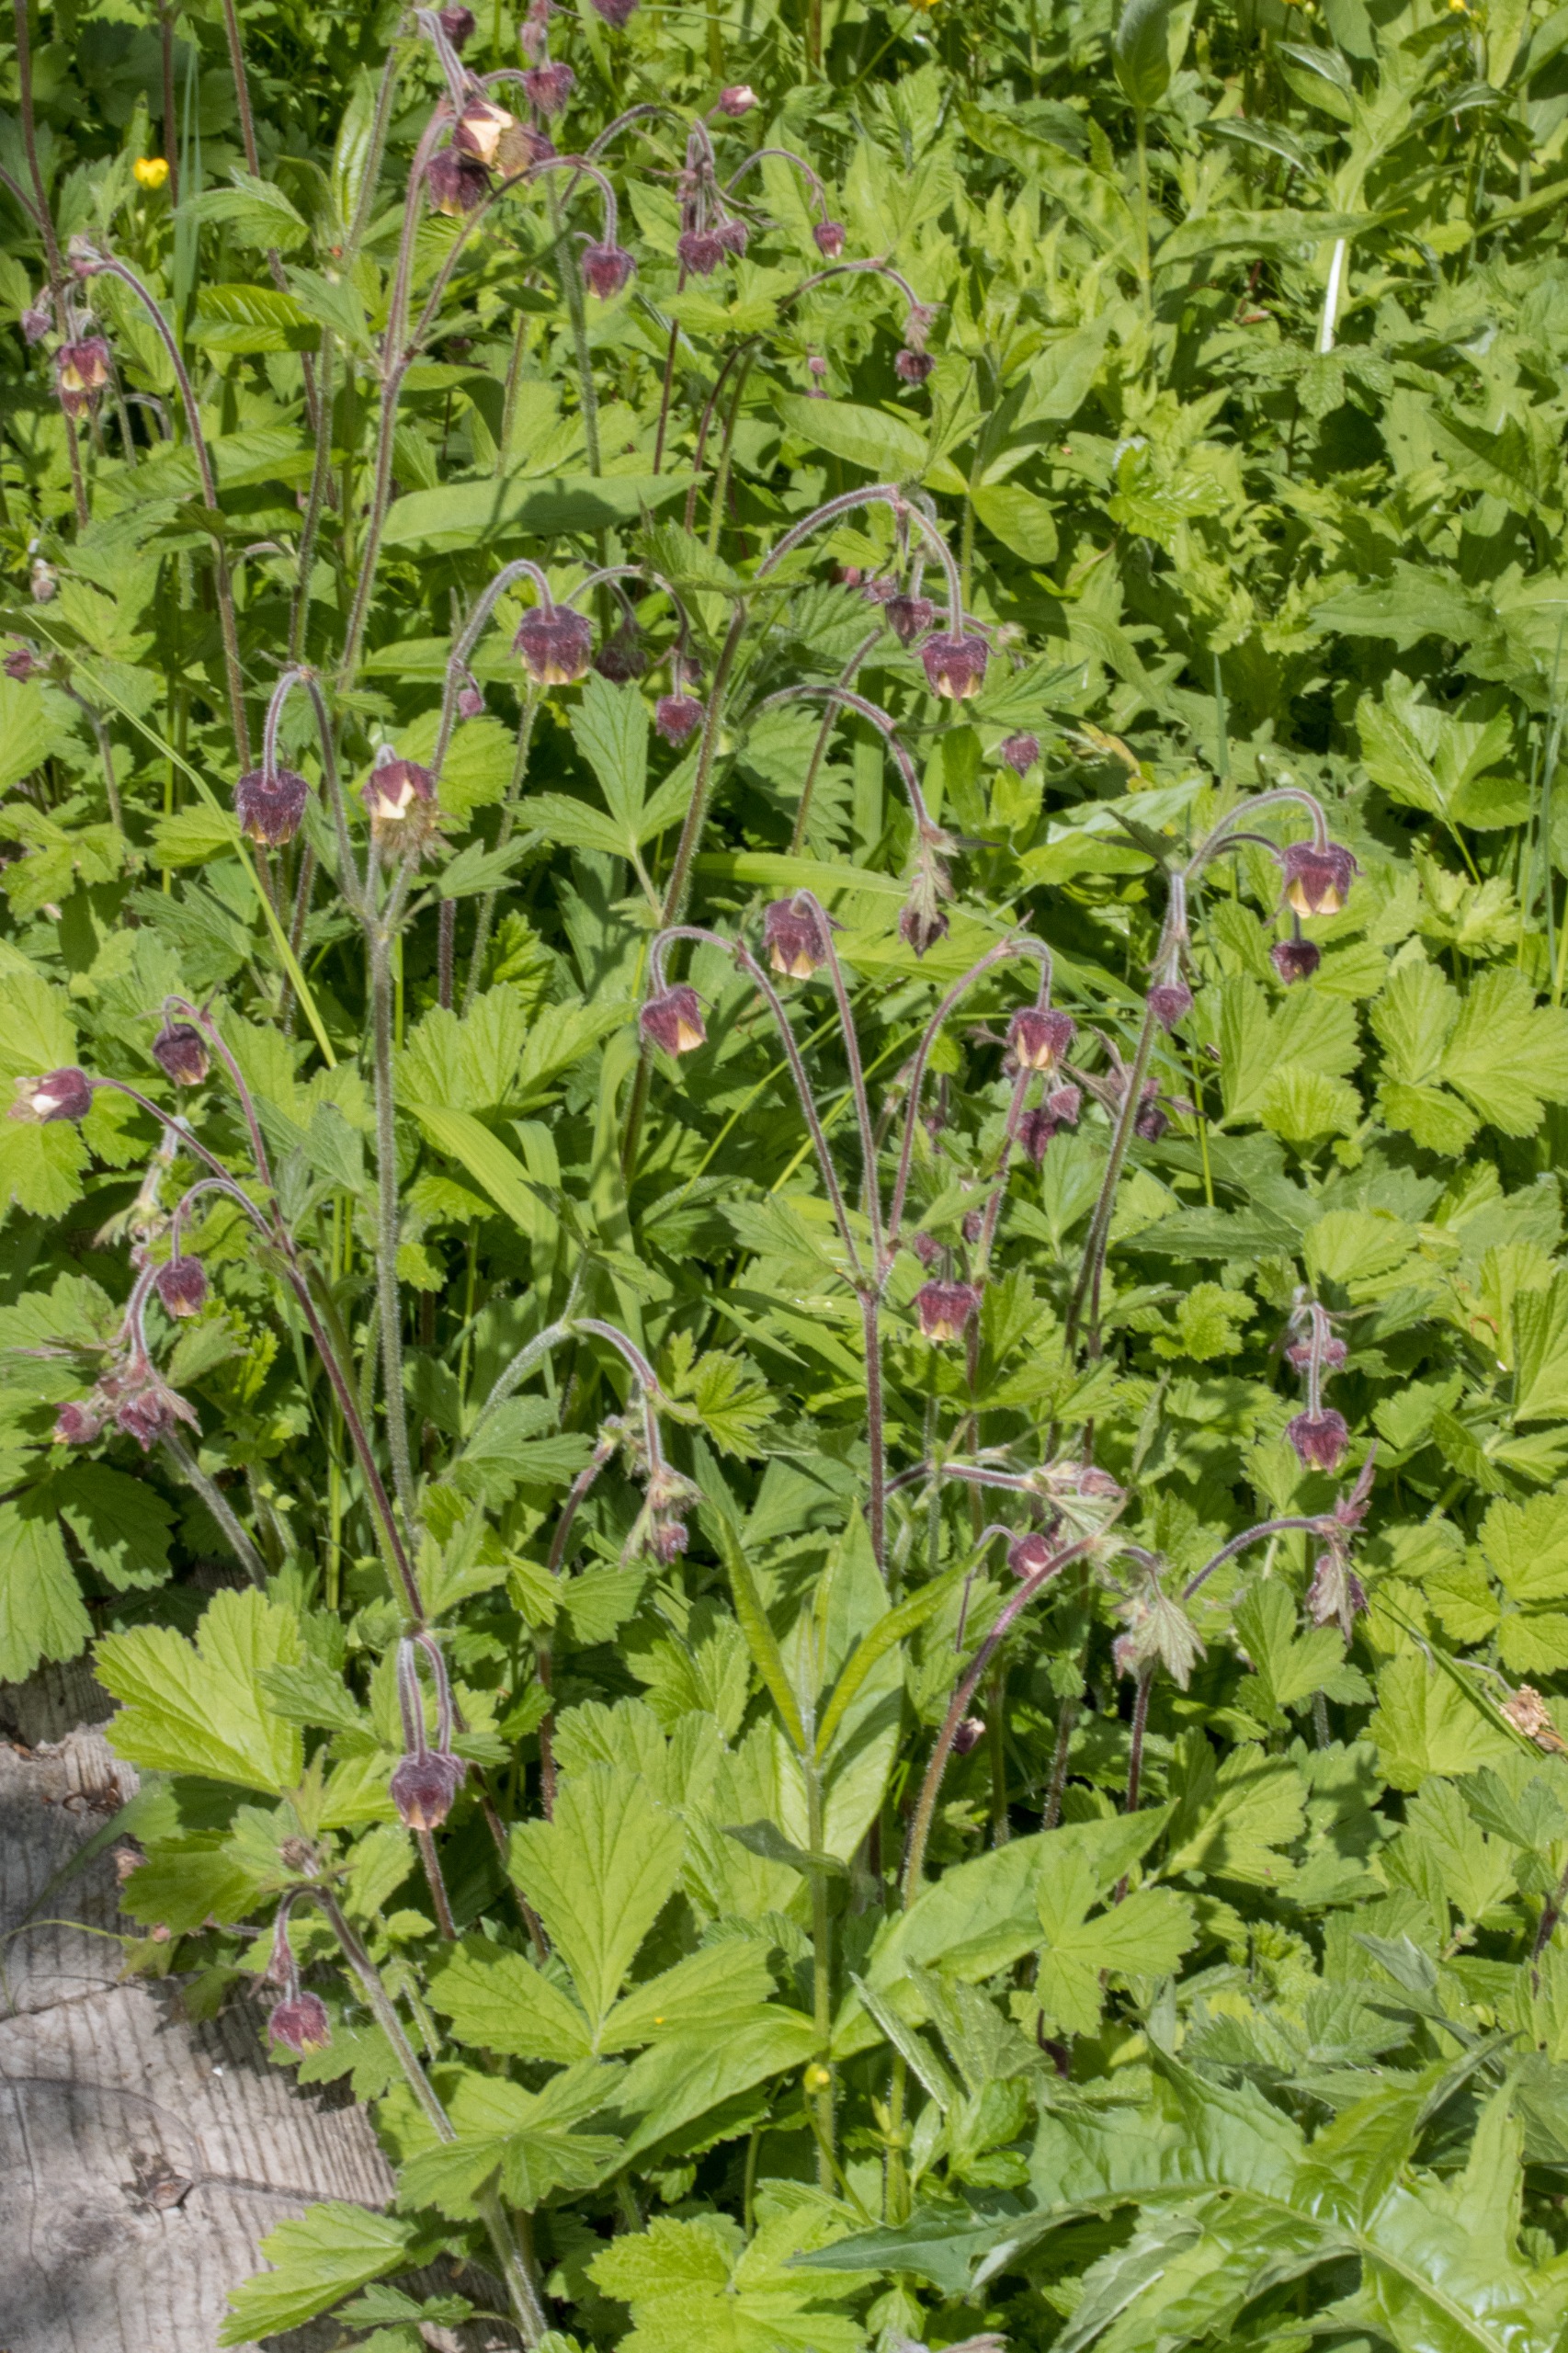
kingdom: Plantae
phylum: Tracheophyta
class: Magnoliopsida
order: Rosales
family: Rosaceae
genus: Geum
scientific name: Geum rivale
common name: Eng-nellikerod
